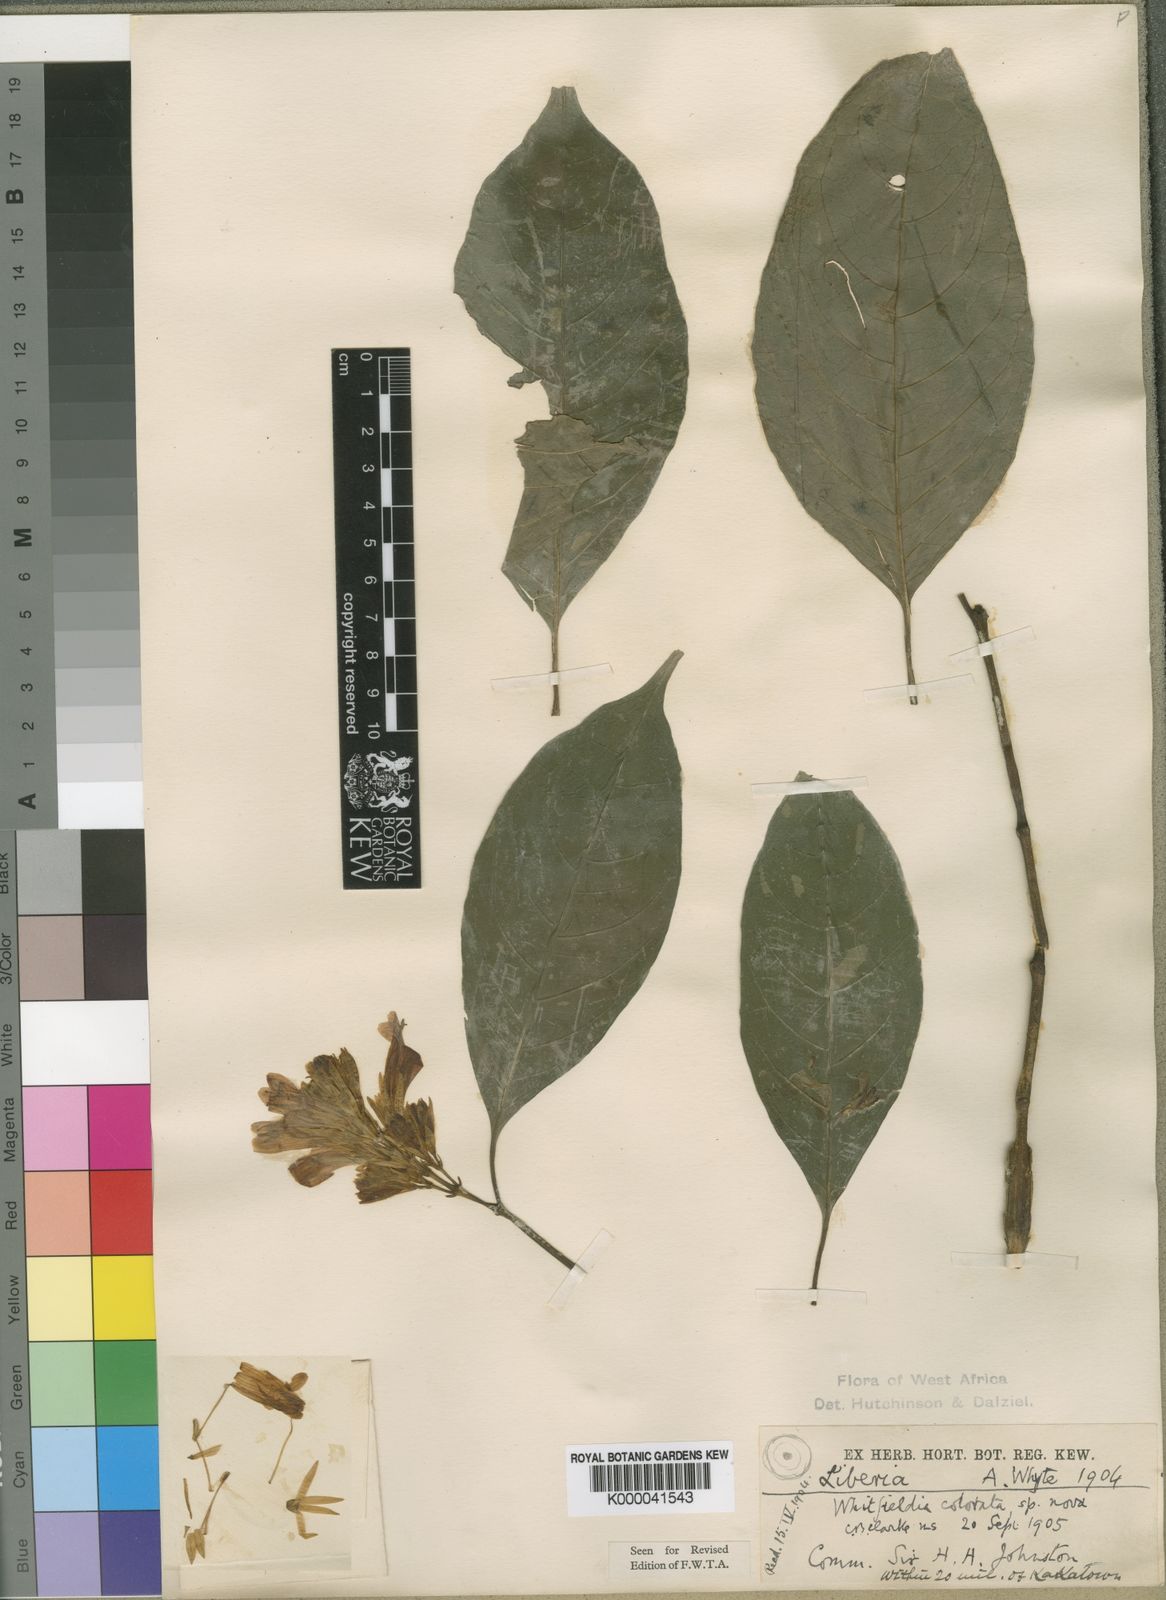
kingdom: Plantae
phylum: Tracheophyta
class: Magnoliopsida
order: Lamiales
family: Acanthaceae
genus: Whitfieldia
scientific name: Whitfieldia
